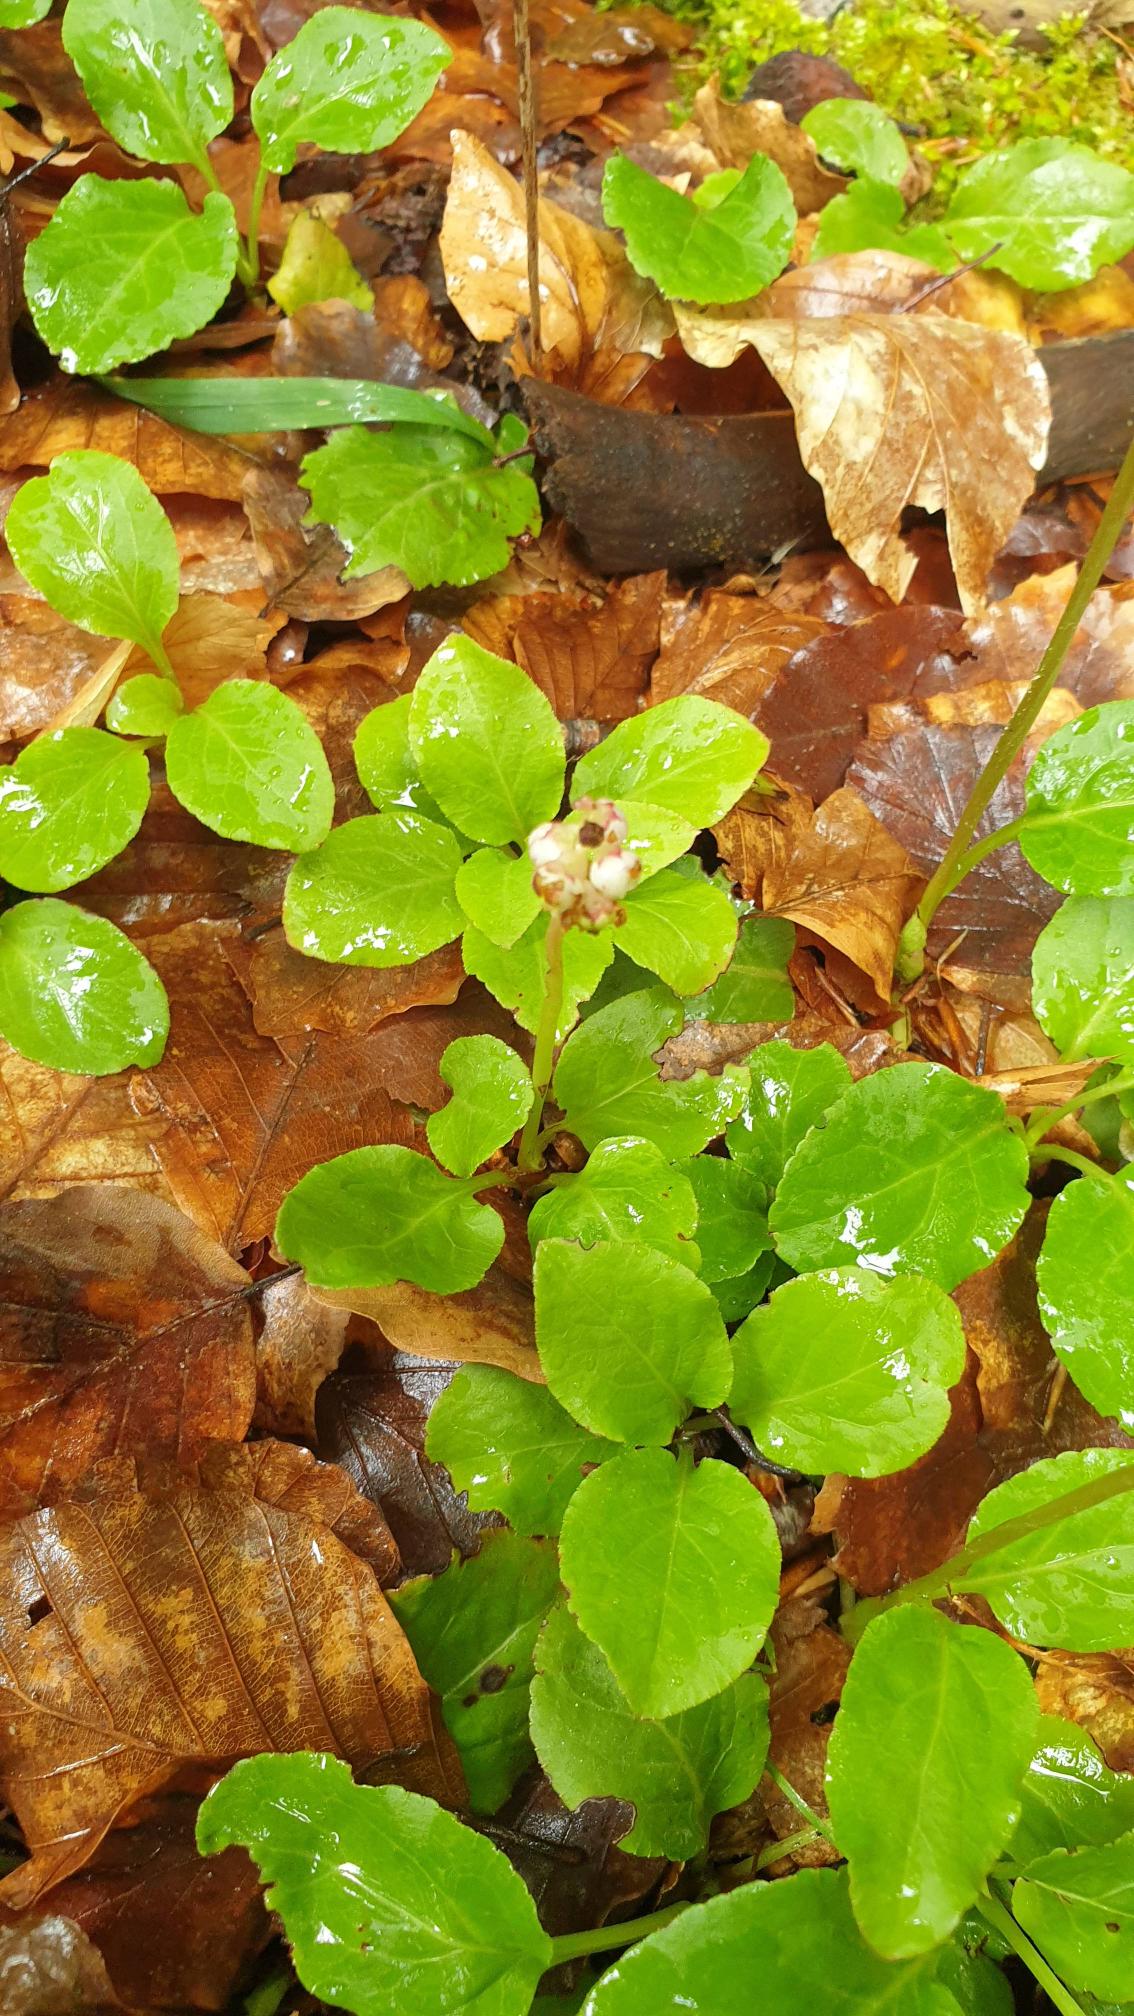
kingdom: Plantae
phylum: Tracheophyta
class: Magnoliopsida
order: Ericales
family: Ericaceae
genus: Pyrola
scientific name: Pyrola minor
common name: Liden vintergrøn
